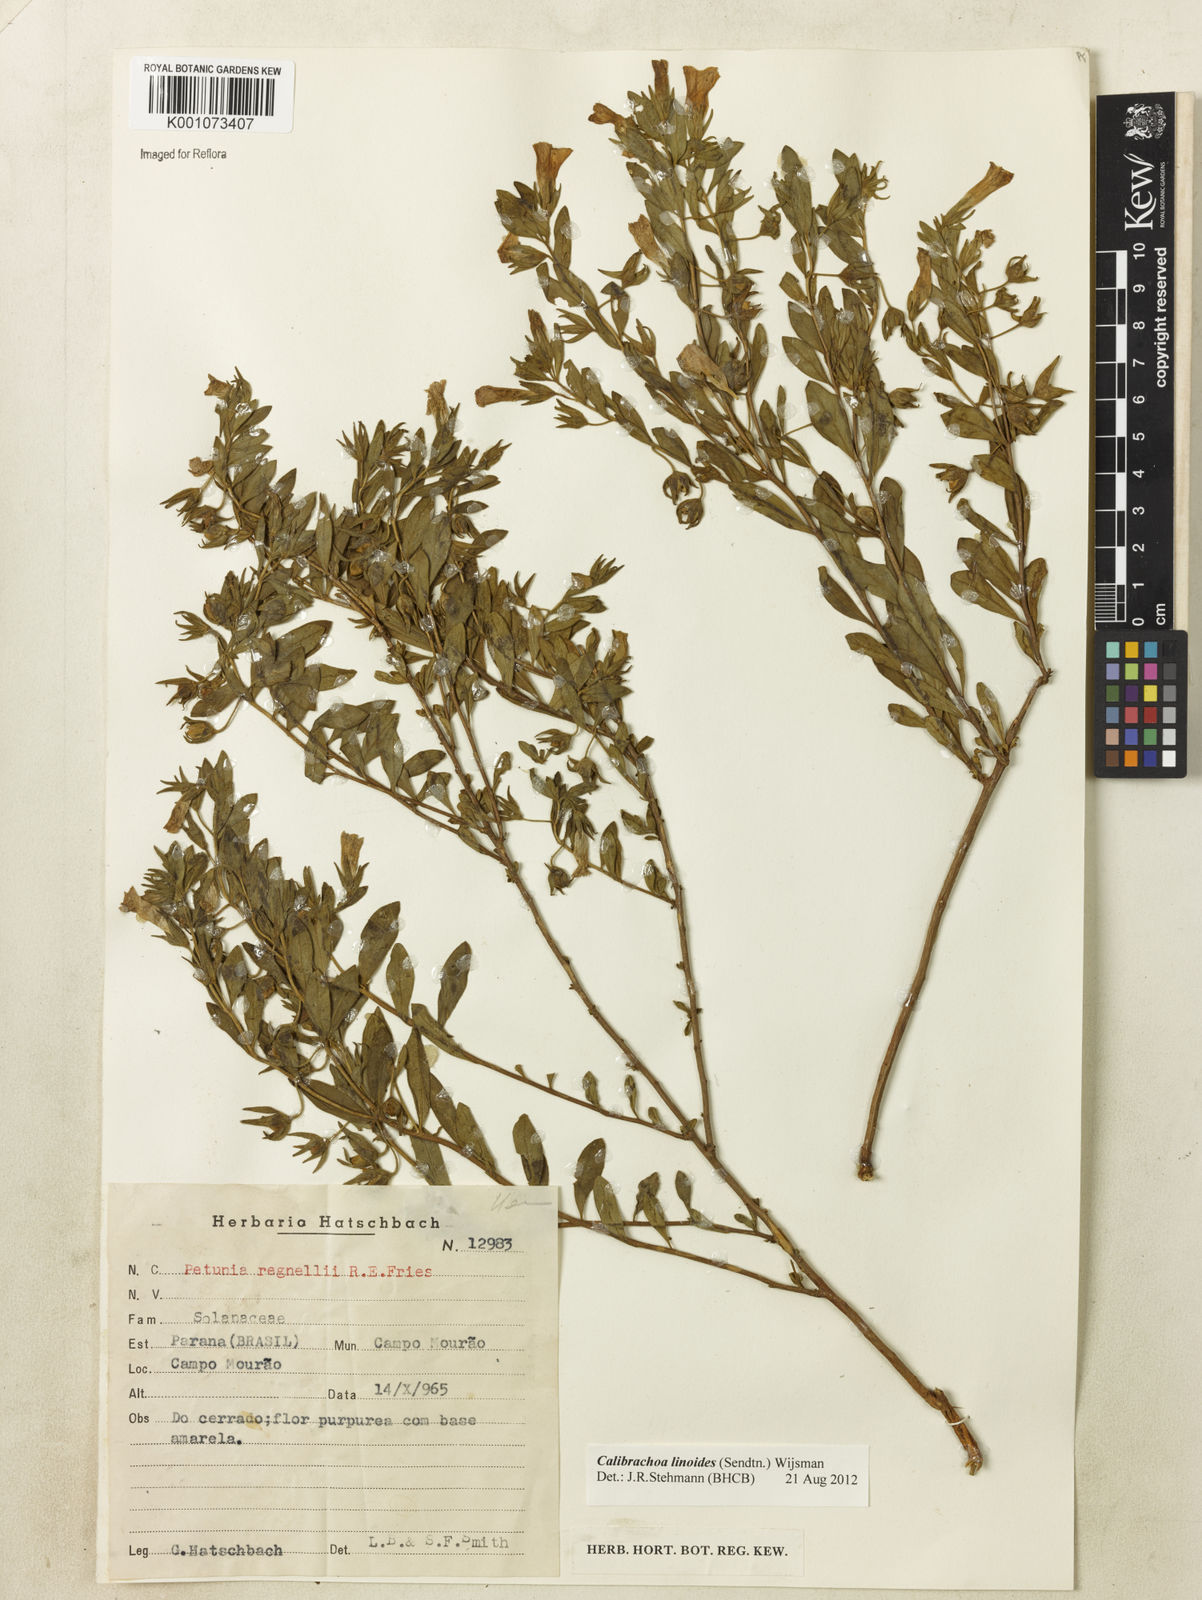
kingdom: Plantae
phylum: Tracheophyta
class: Magnoliopsida
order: Solanales
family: Solanaceae
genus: Calibrachoa
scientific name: Calibrachoa linoides
